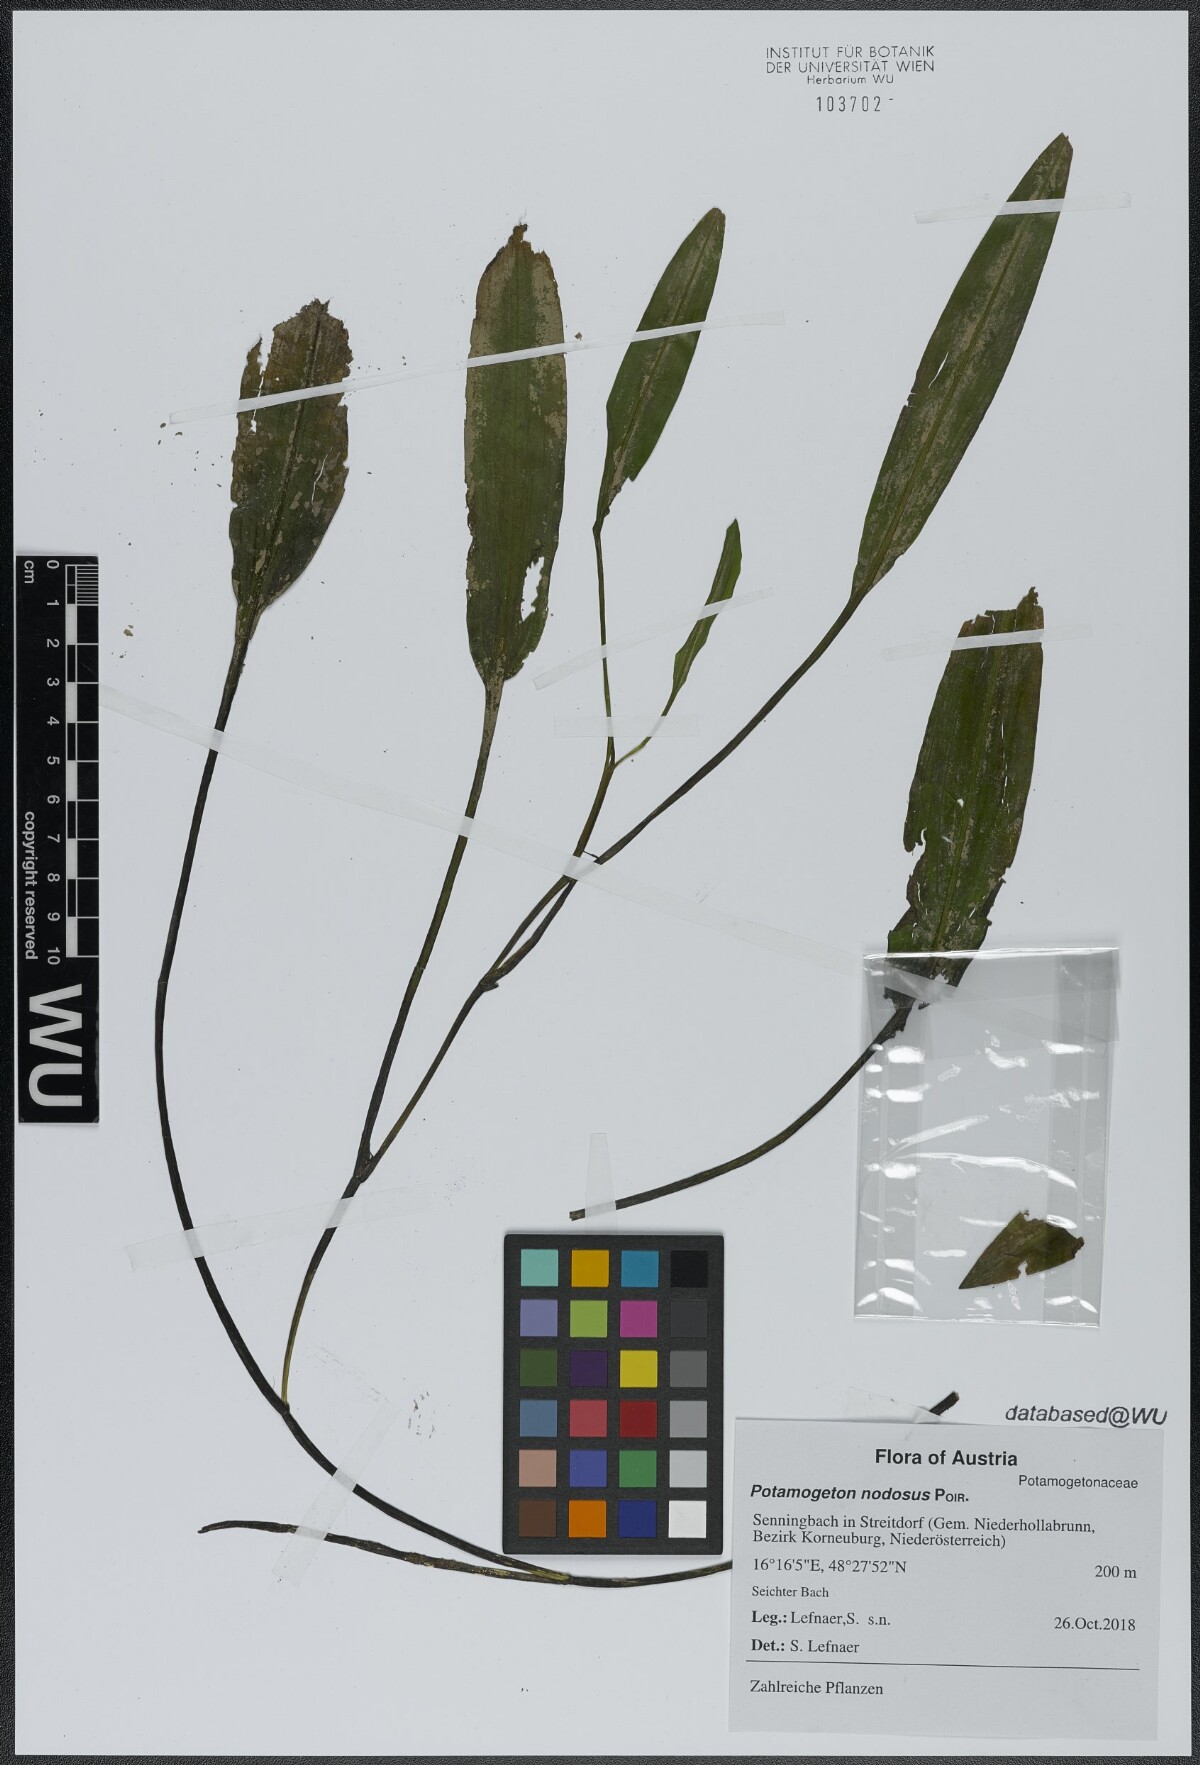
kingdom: Plantae
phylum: Tracheophyta
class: Liliopsida
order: Alismatales
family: Potamogetonaceae
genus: Potamogeton
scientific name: Potamogeton nodosus
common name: Loddon pondweed
